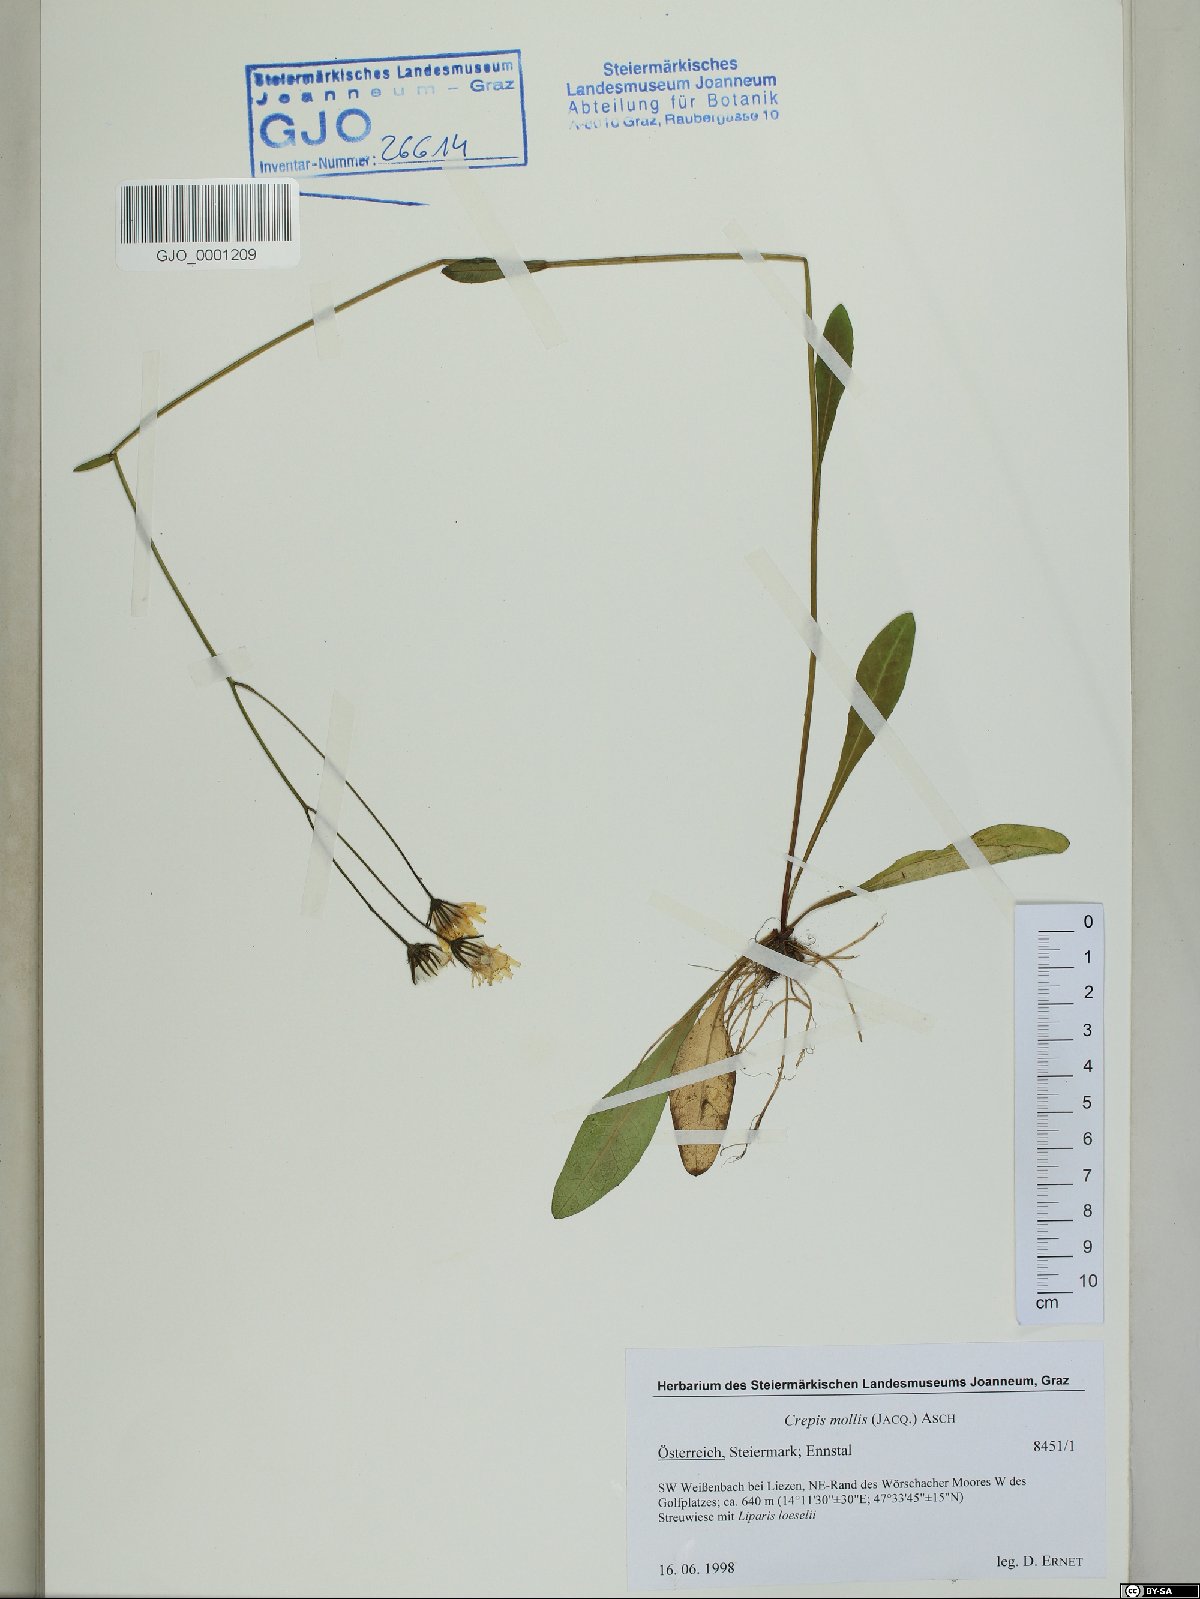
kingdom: Plantae
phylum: Tracheophyta
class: Magnoliopsida
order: Asterales
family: Asteraceae
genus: Crepis
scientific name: Crepis mollis
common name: Northern hawk's-beard
